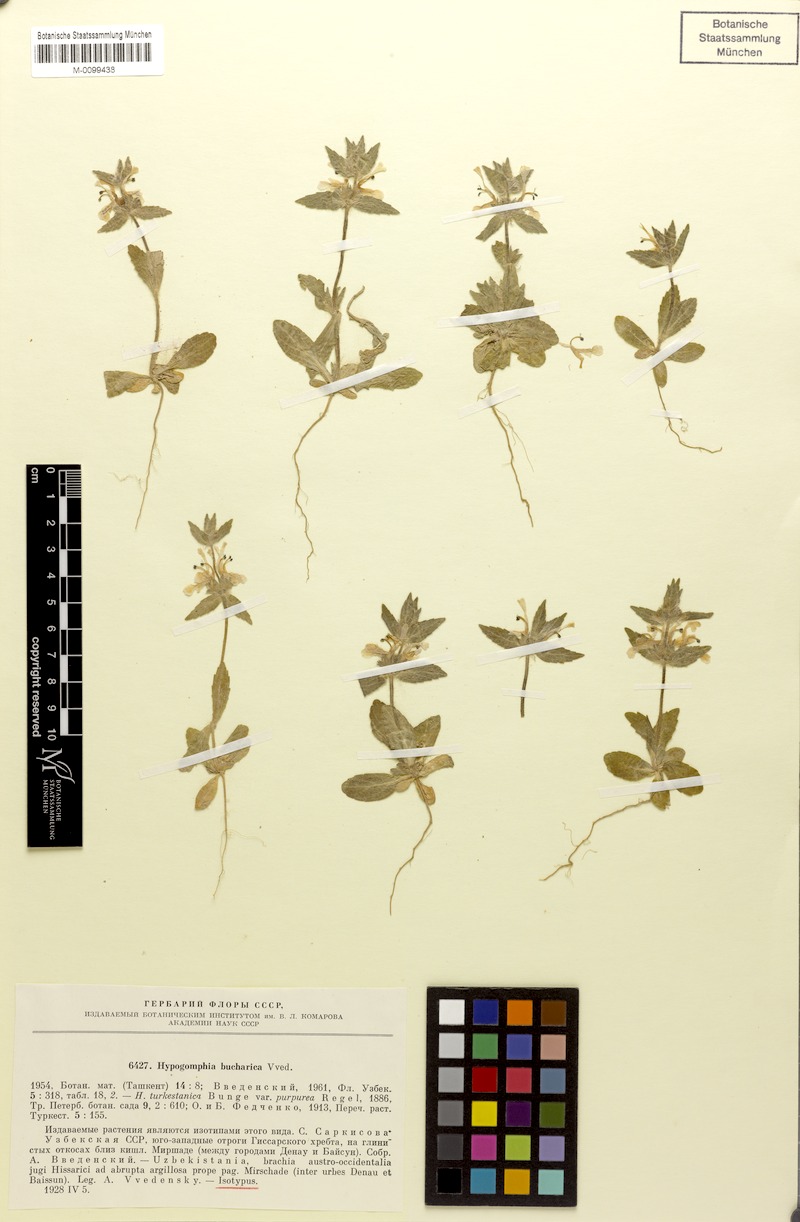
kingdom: Plantae
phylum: Tracheophyta
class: Magnoliopsida
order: Lamiales
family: Lamiaceae
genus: Hypogomphia
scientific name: Hypogomphia bucharica
